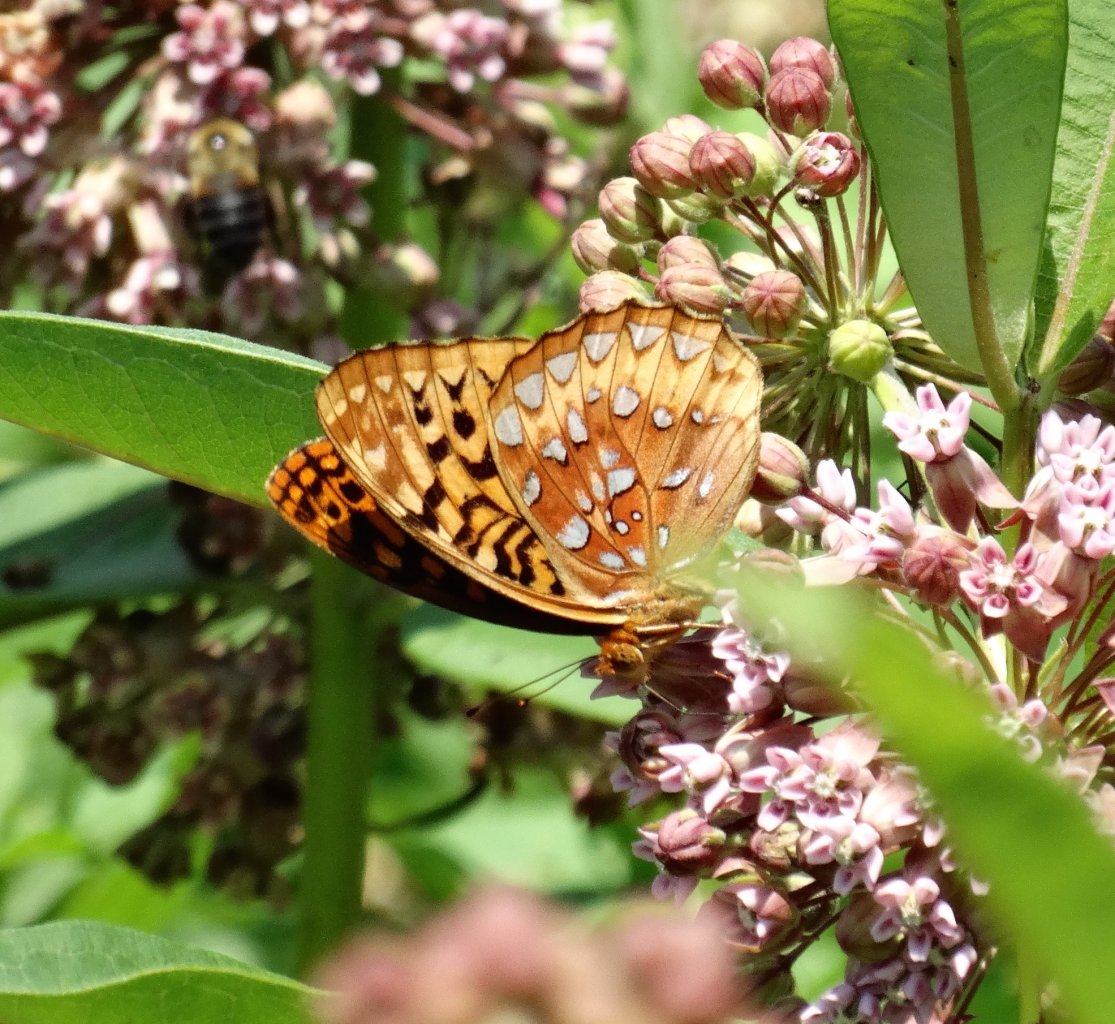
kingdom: Animalia
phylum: Arthropoda
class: Insecta
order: Lepidoptera
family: Nymphalidae
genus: Speyeria
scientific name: Speyeria cybele
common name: Great Spangled Fritillary
